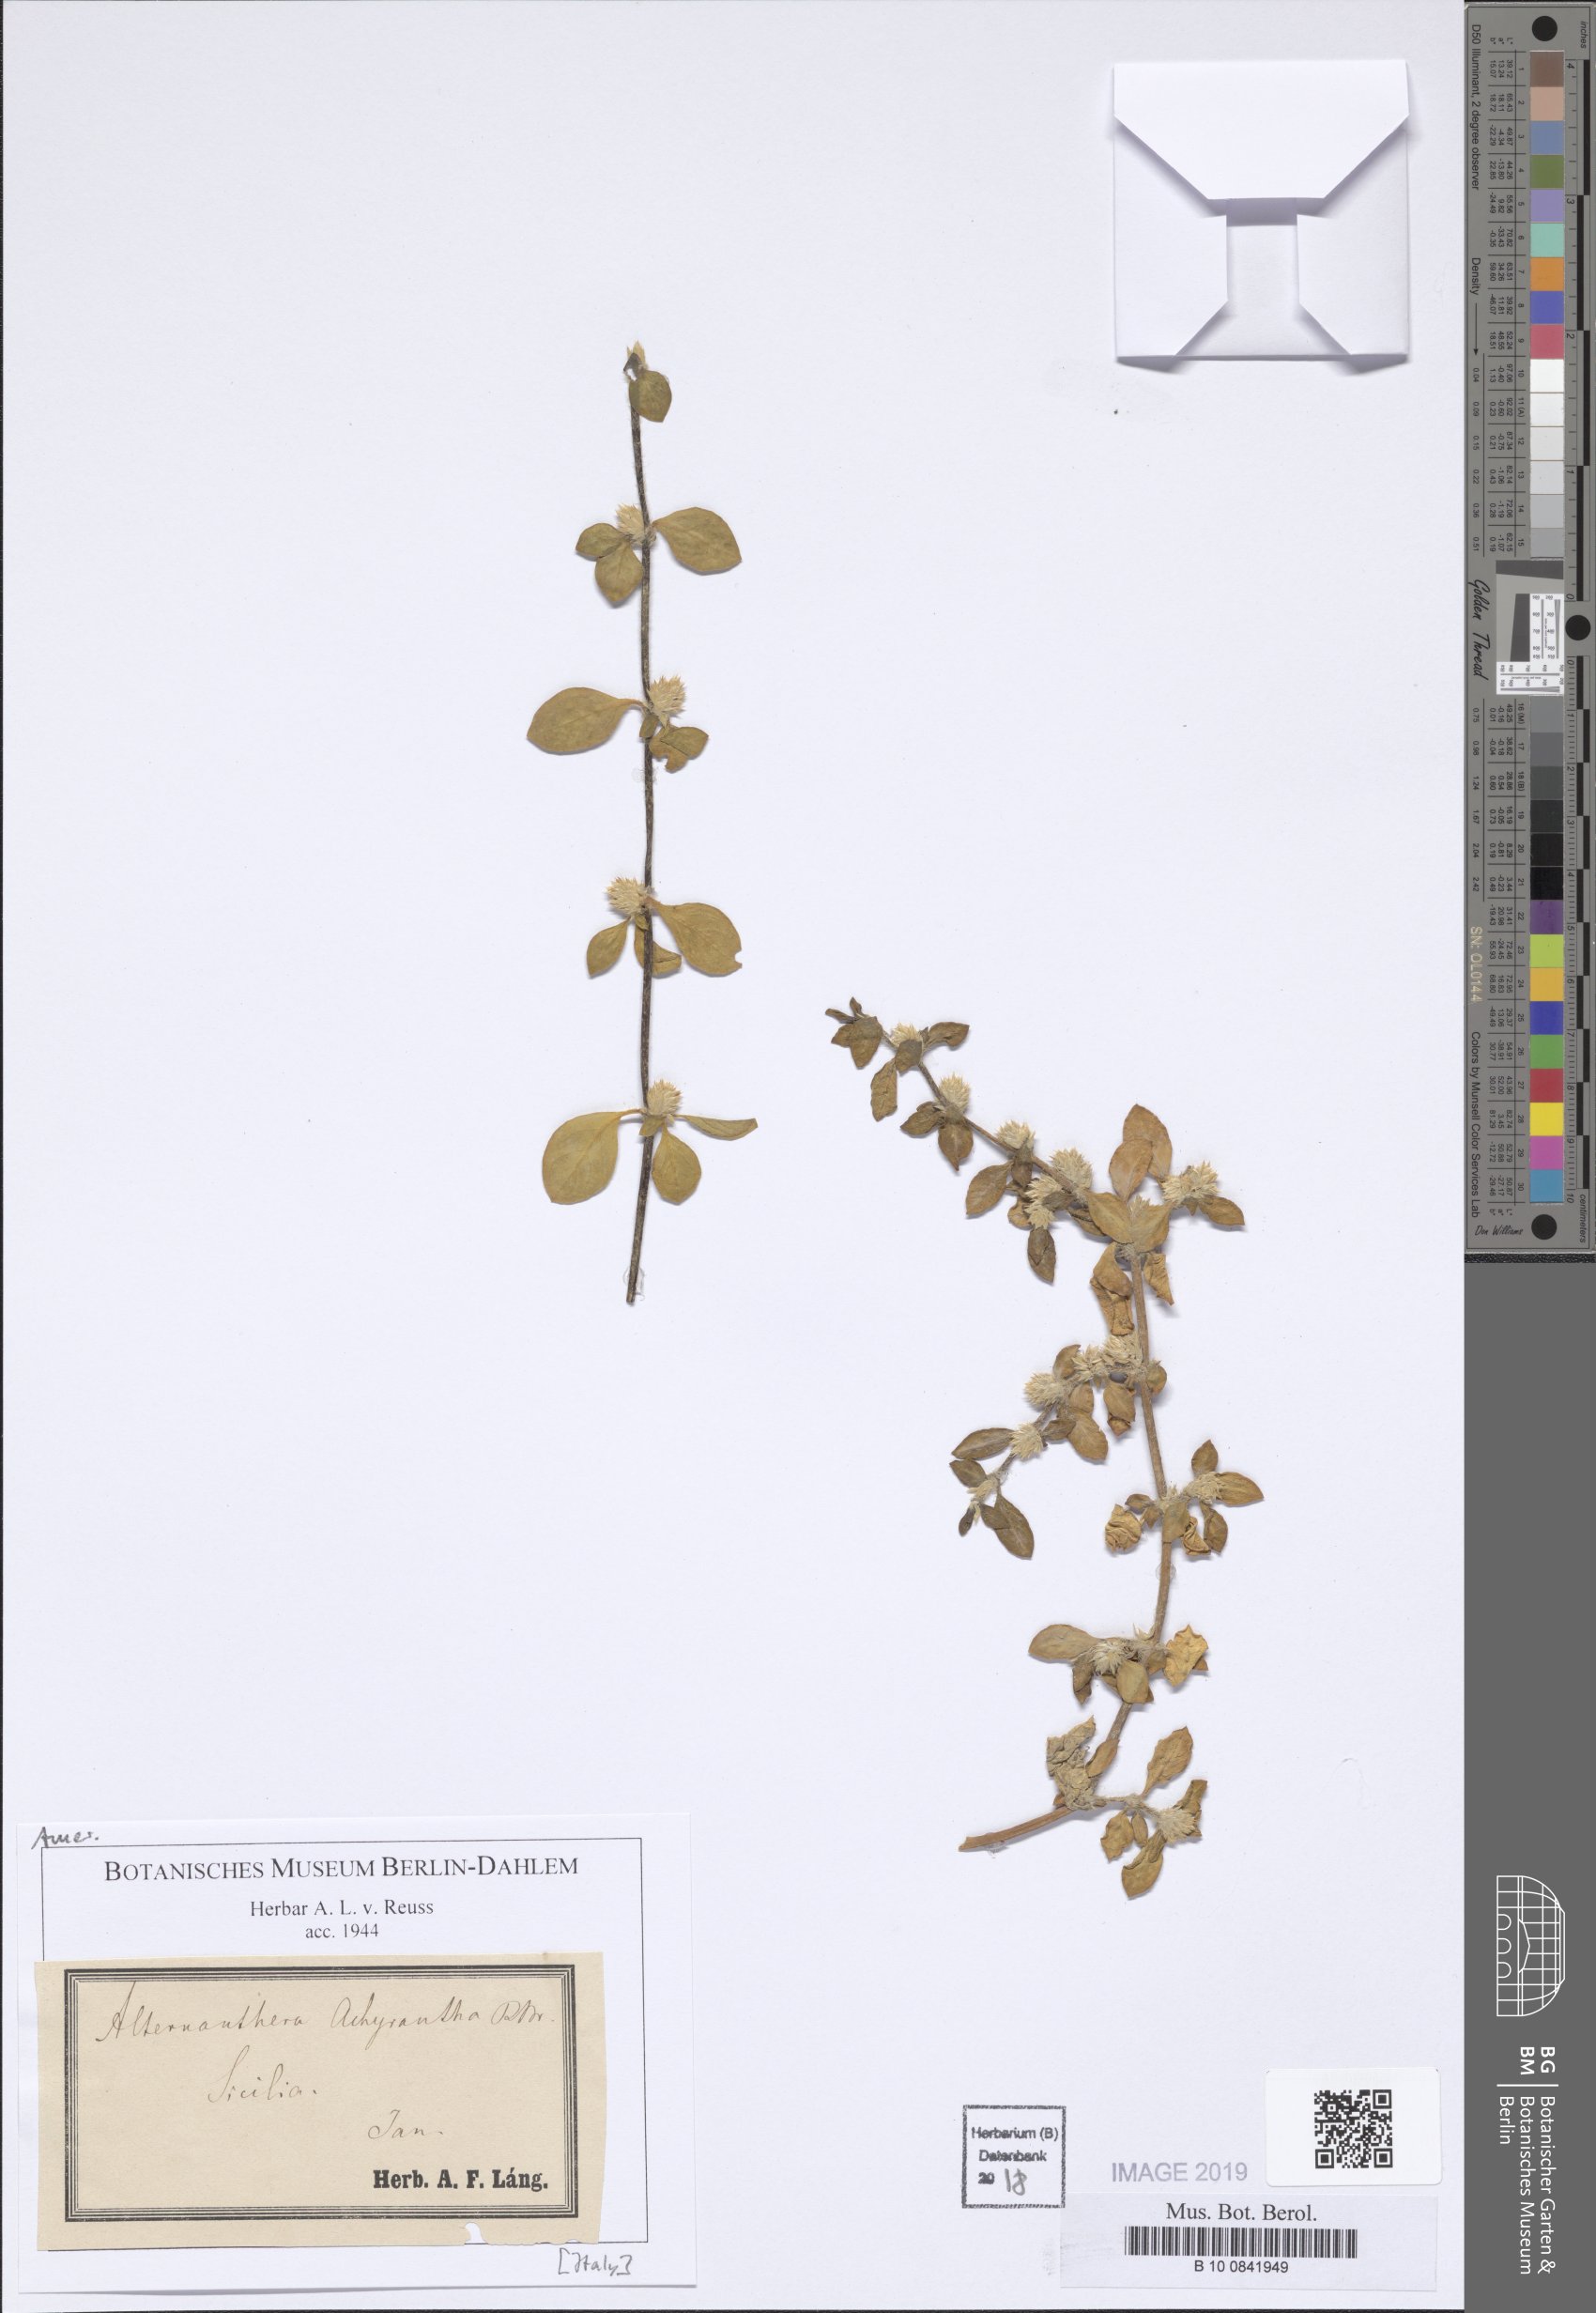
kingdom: Plantae
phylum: Tracheophyta
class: Magnoliopsida
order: Caryophyllales
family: Amaranthaceae
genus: Alternanthera
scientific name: Alternanthera pungens
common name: Khakiweed
